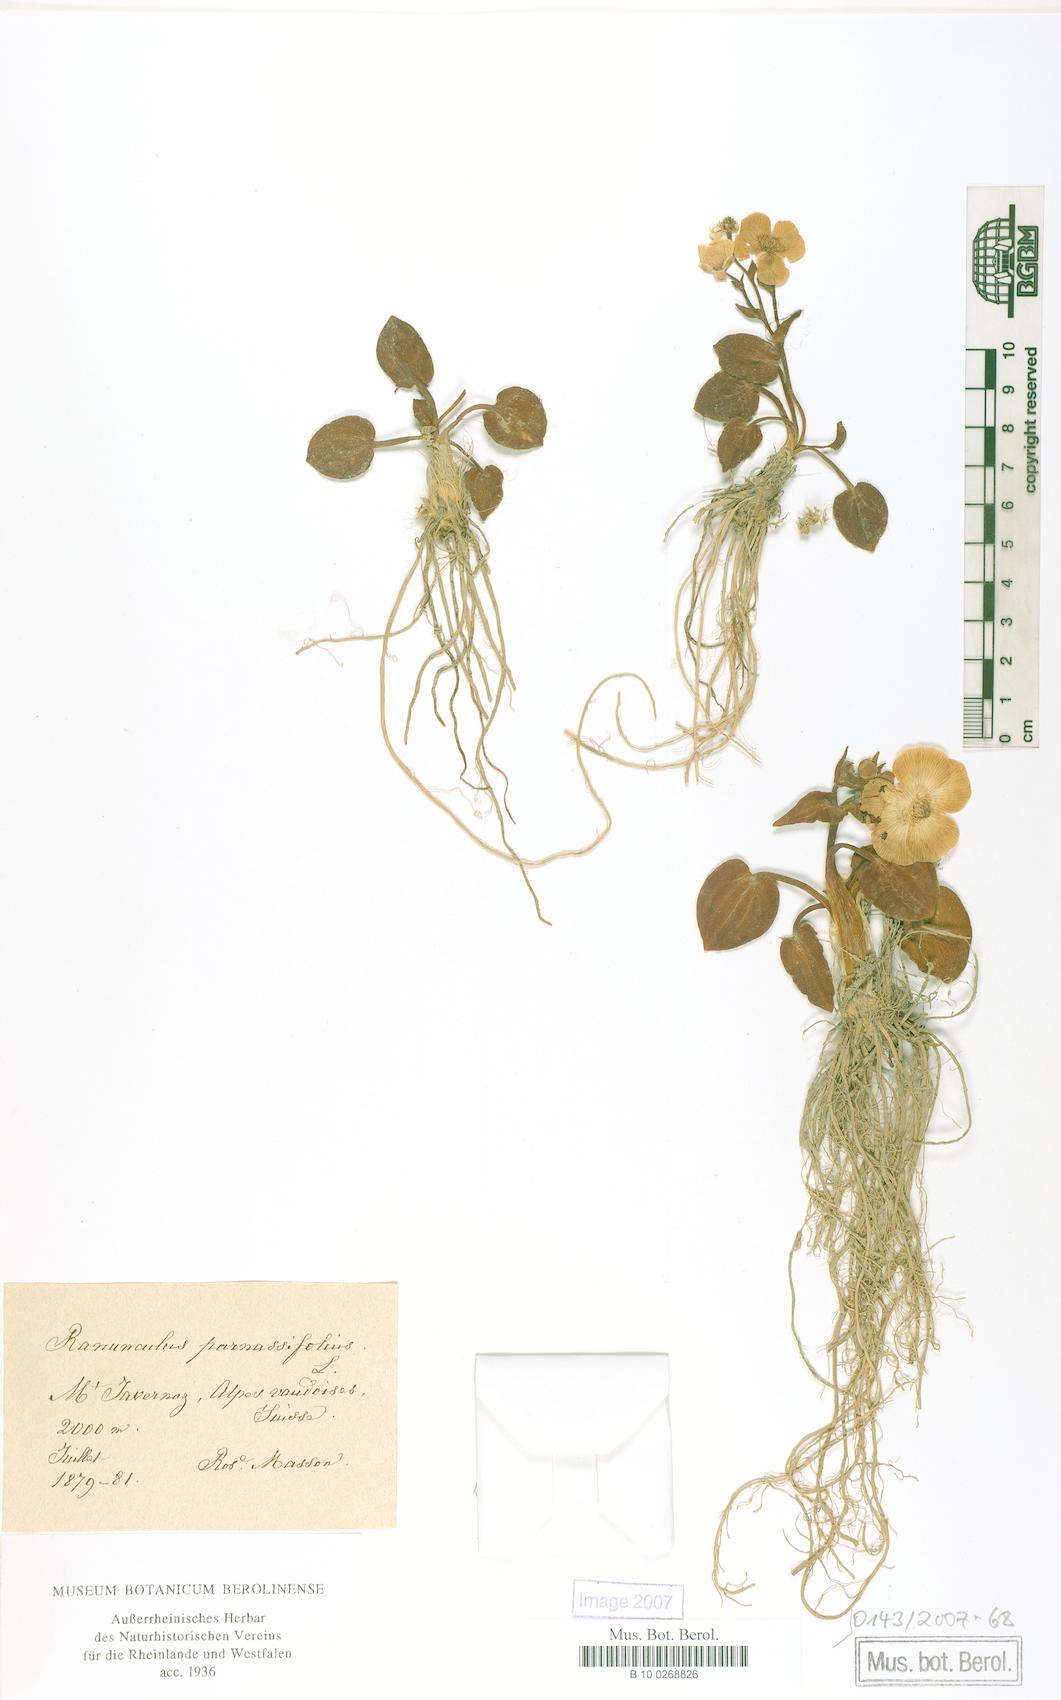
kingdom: Plantae
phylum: Tracheophyta
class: Magnoliopsida
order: Ranunculales
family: Ranunculaceae
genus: Ranunculus
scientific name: Ranunculus parnassiifolius
